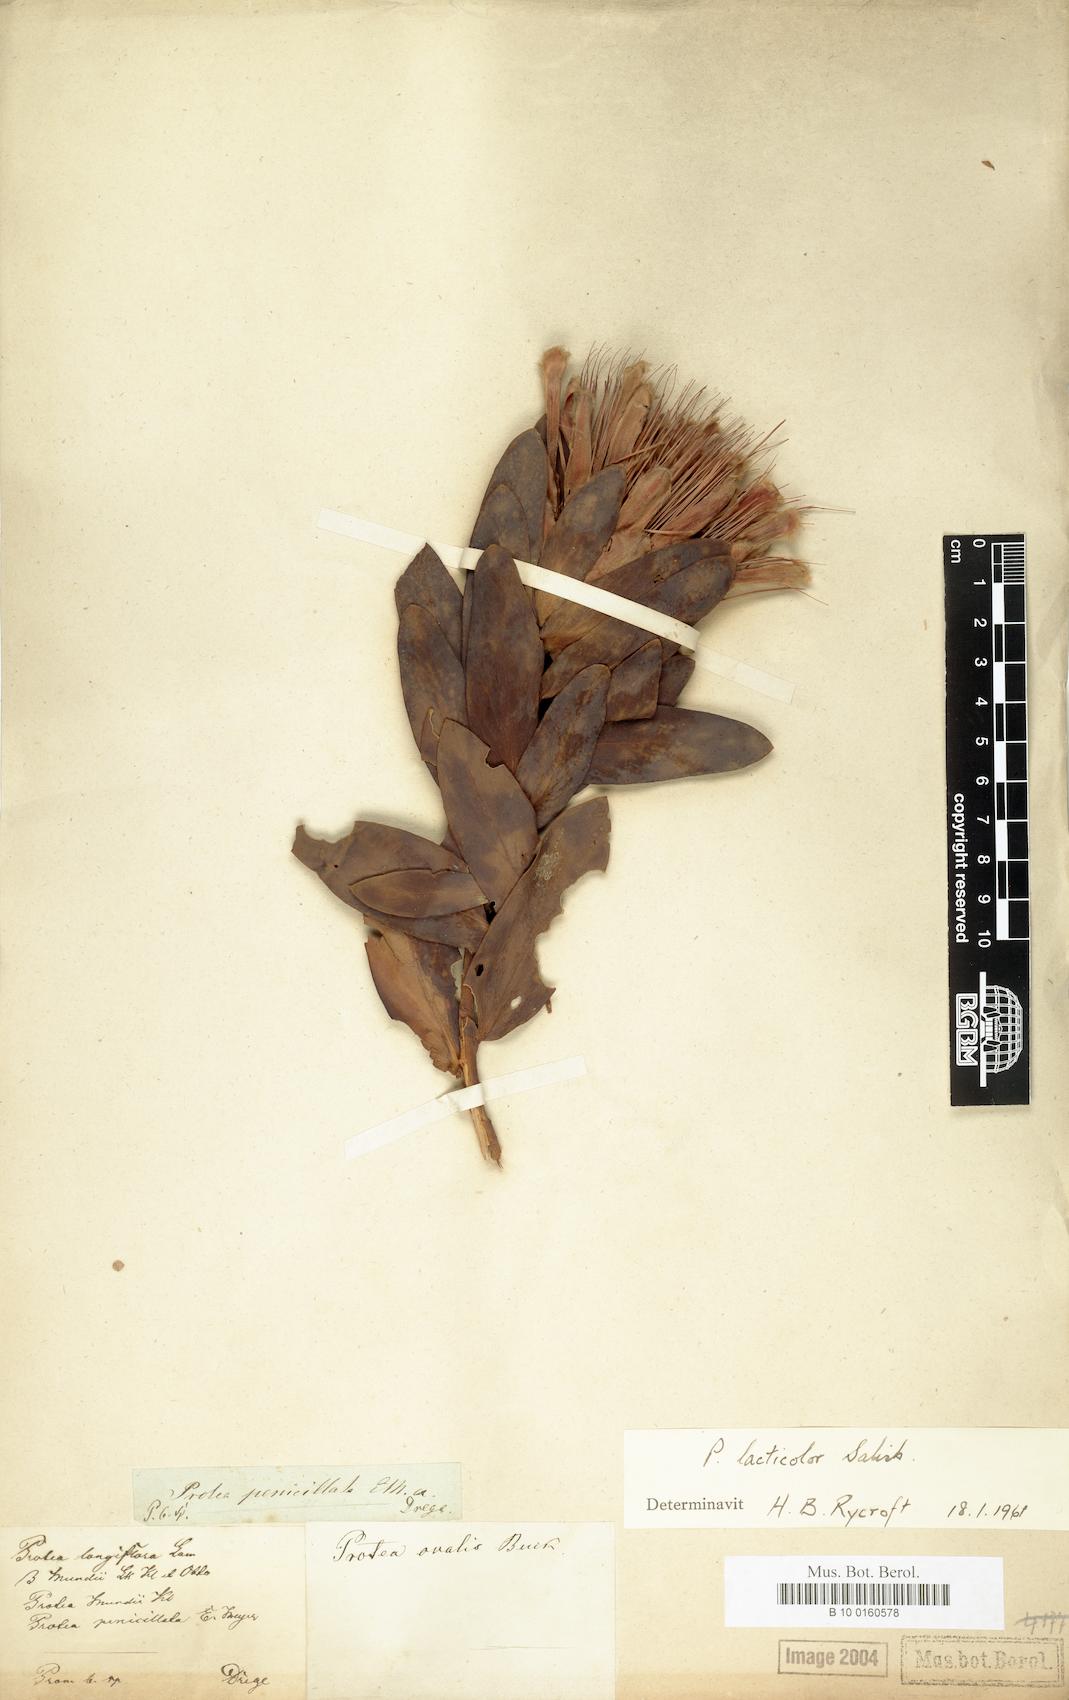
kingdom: Plantae
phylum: Tracheophyta
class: Magnoliopsida
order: Proteales
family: Proteaceae
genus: Protea
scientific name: Protea lacticolor
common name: Hottentot sugarbush
